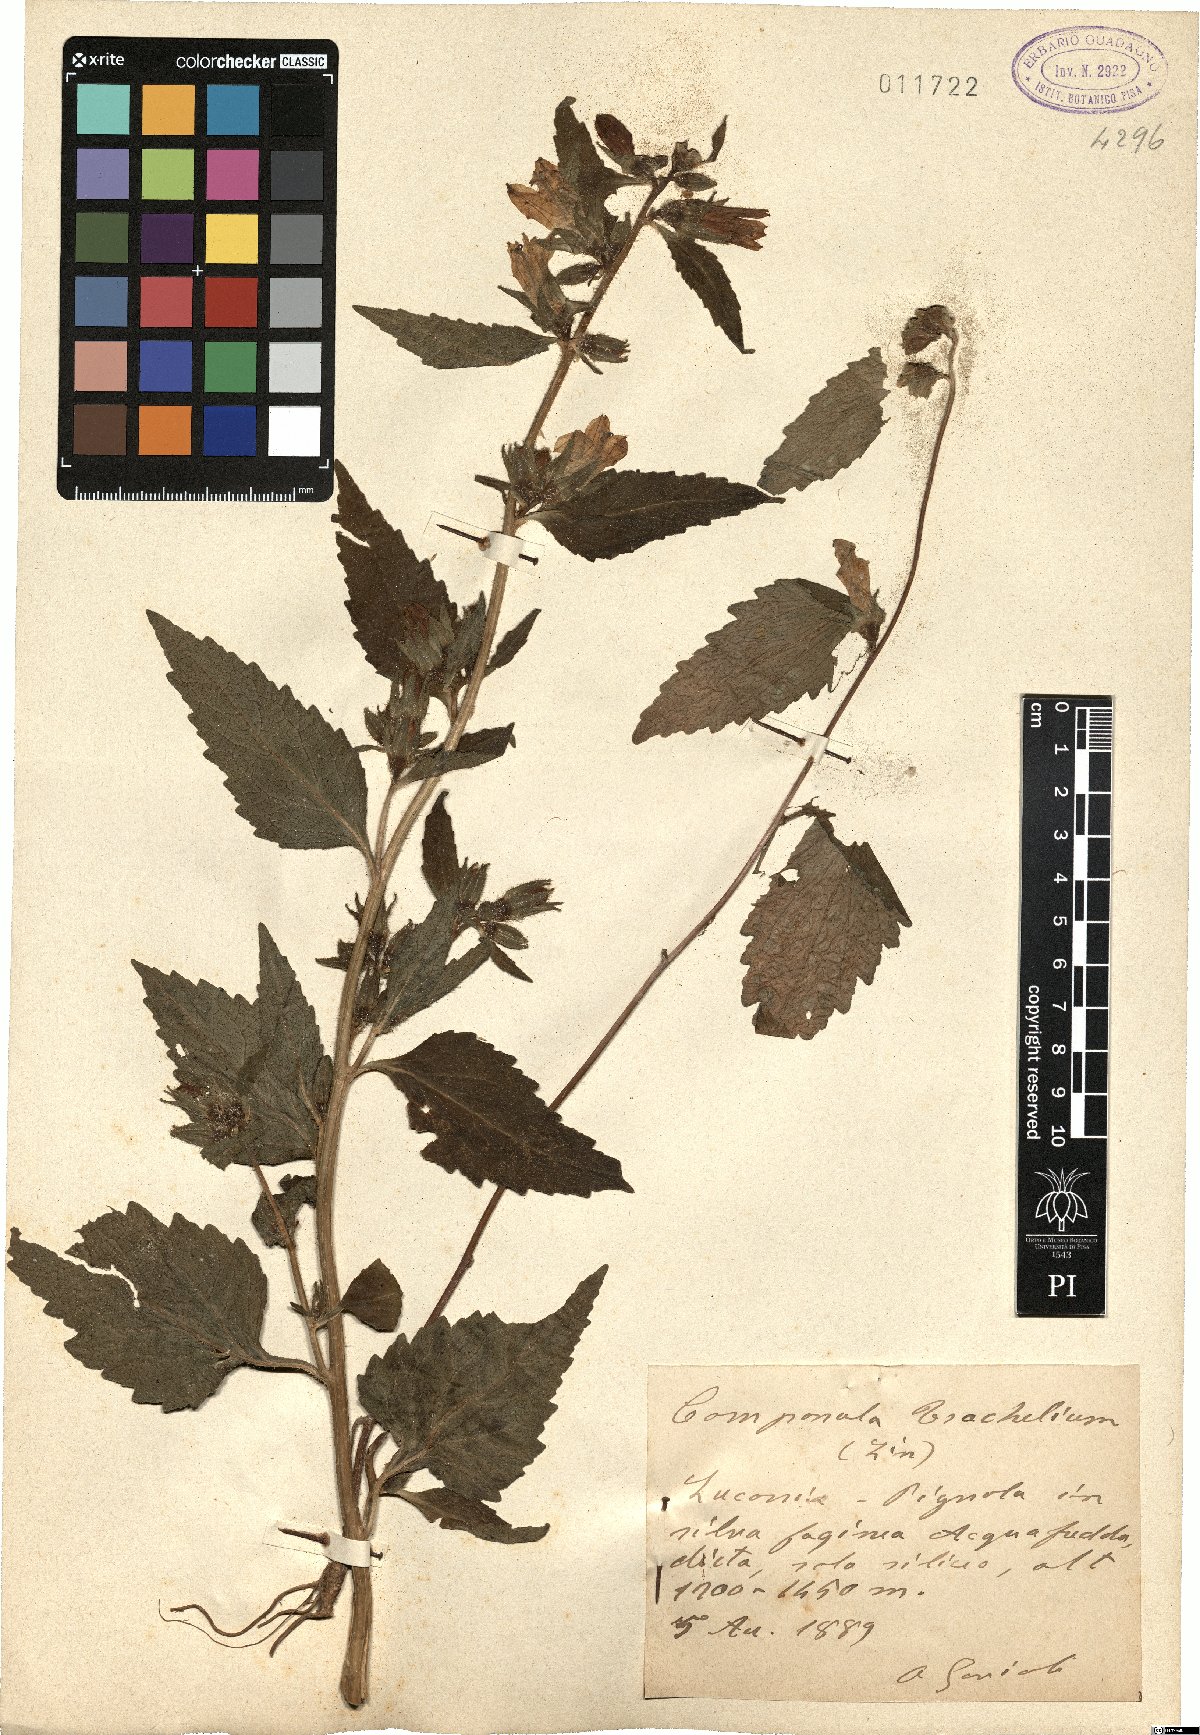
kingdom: Plantae
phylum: Tracheophyta
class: Magnoliopsida
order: Asterales
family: Campanulaceae
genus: Campanula
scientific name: Campanula trachelium
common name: Nettle-leaved bellflower
